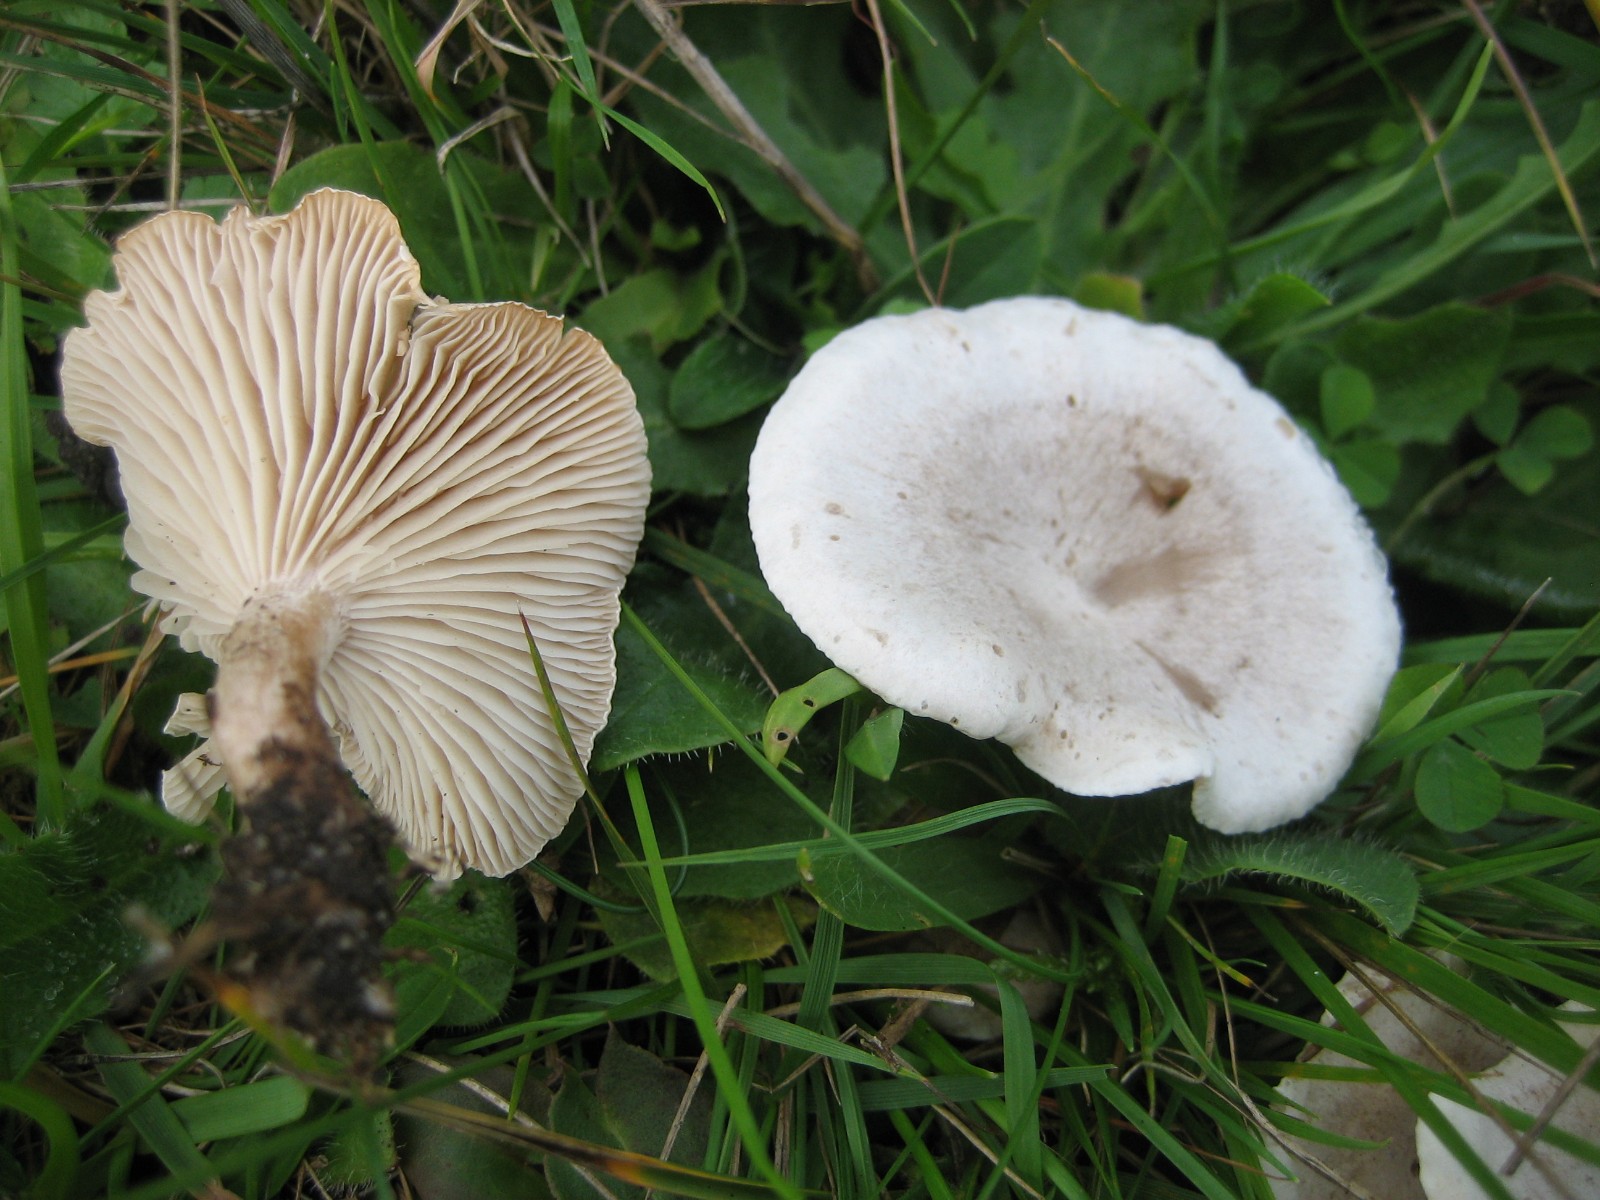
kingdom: Fungi
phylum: Basidiomycota
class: Agaricomycetes
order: Agaricales
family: Tricholomataceae
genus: Clitocybe
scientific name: Clitocybe
